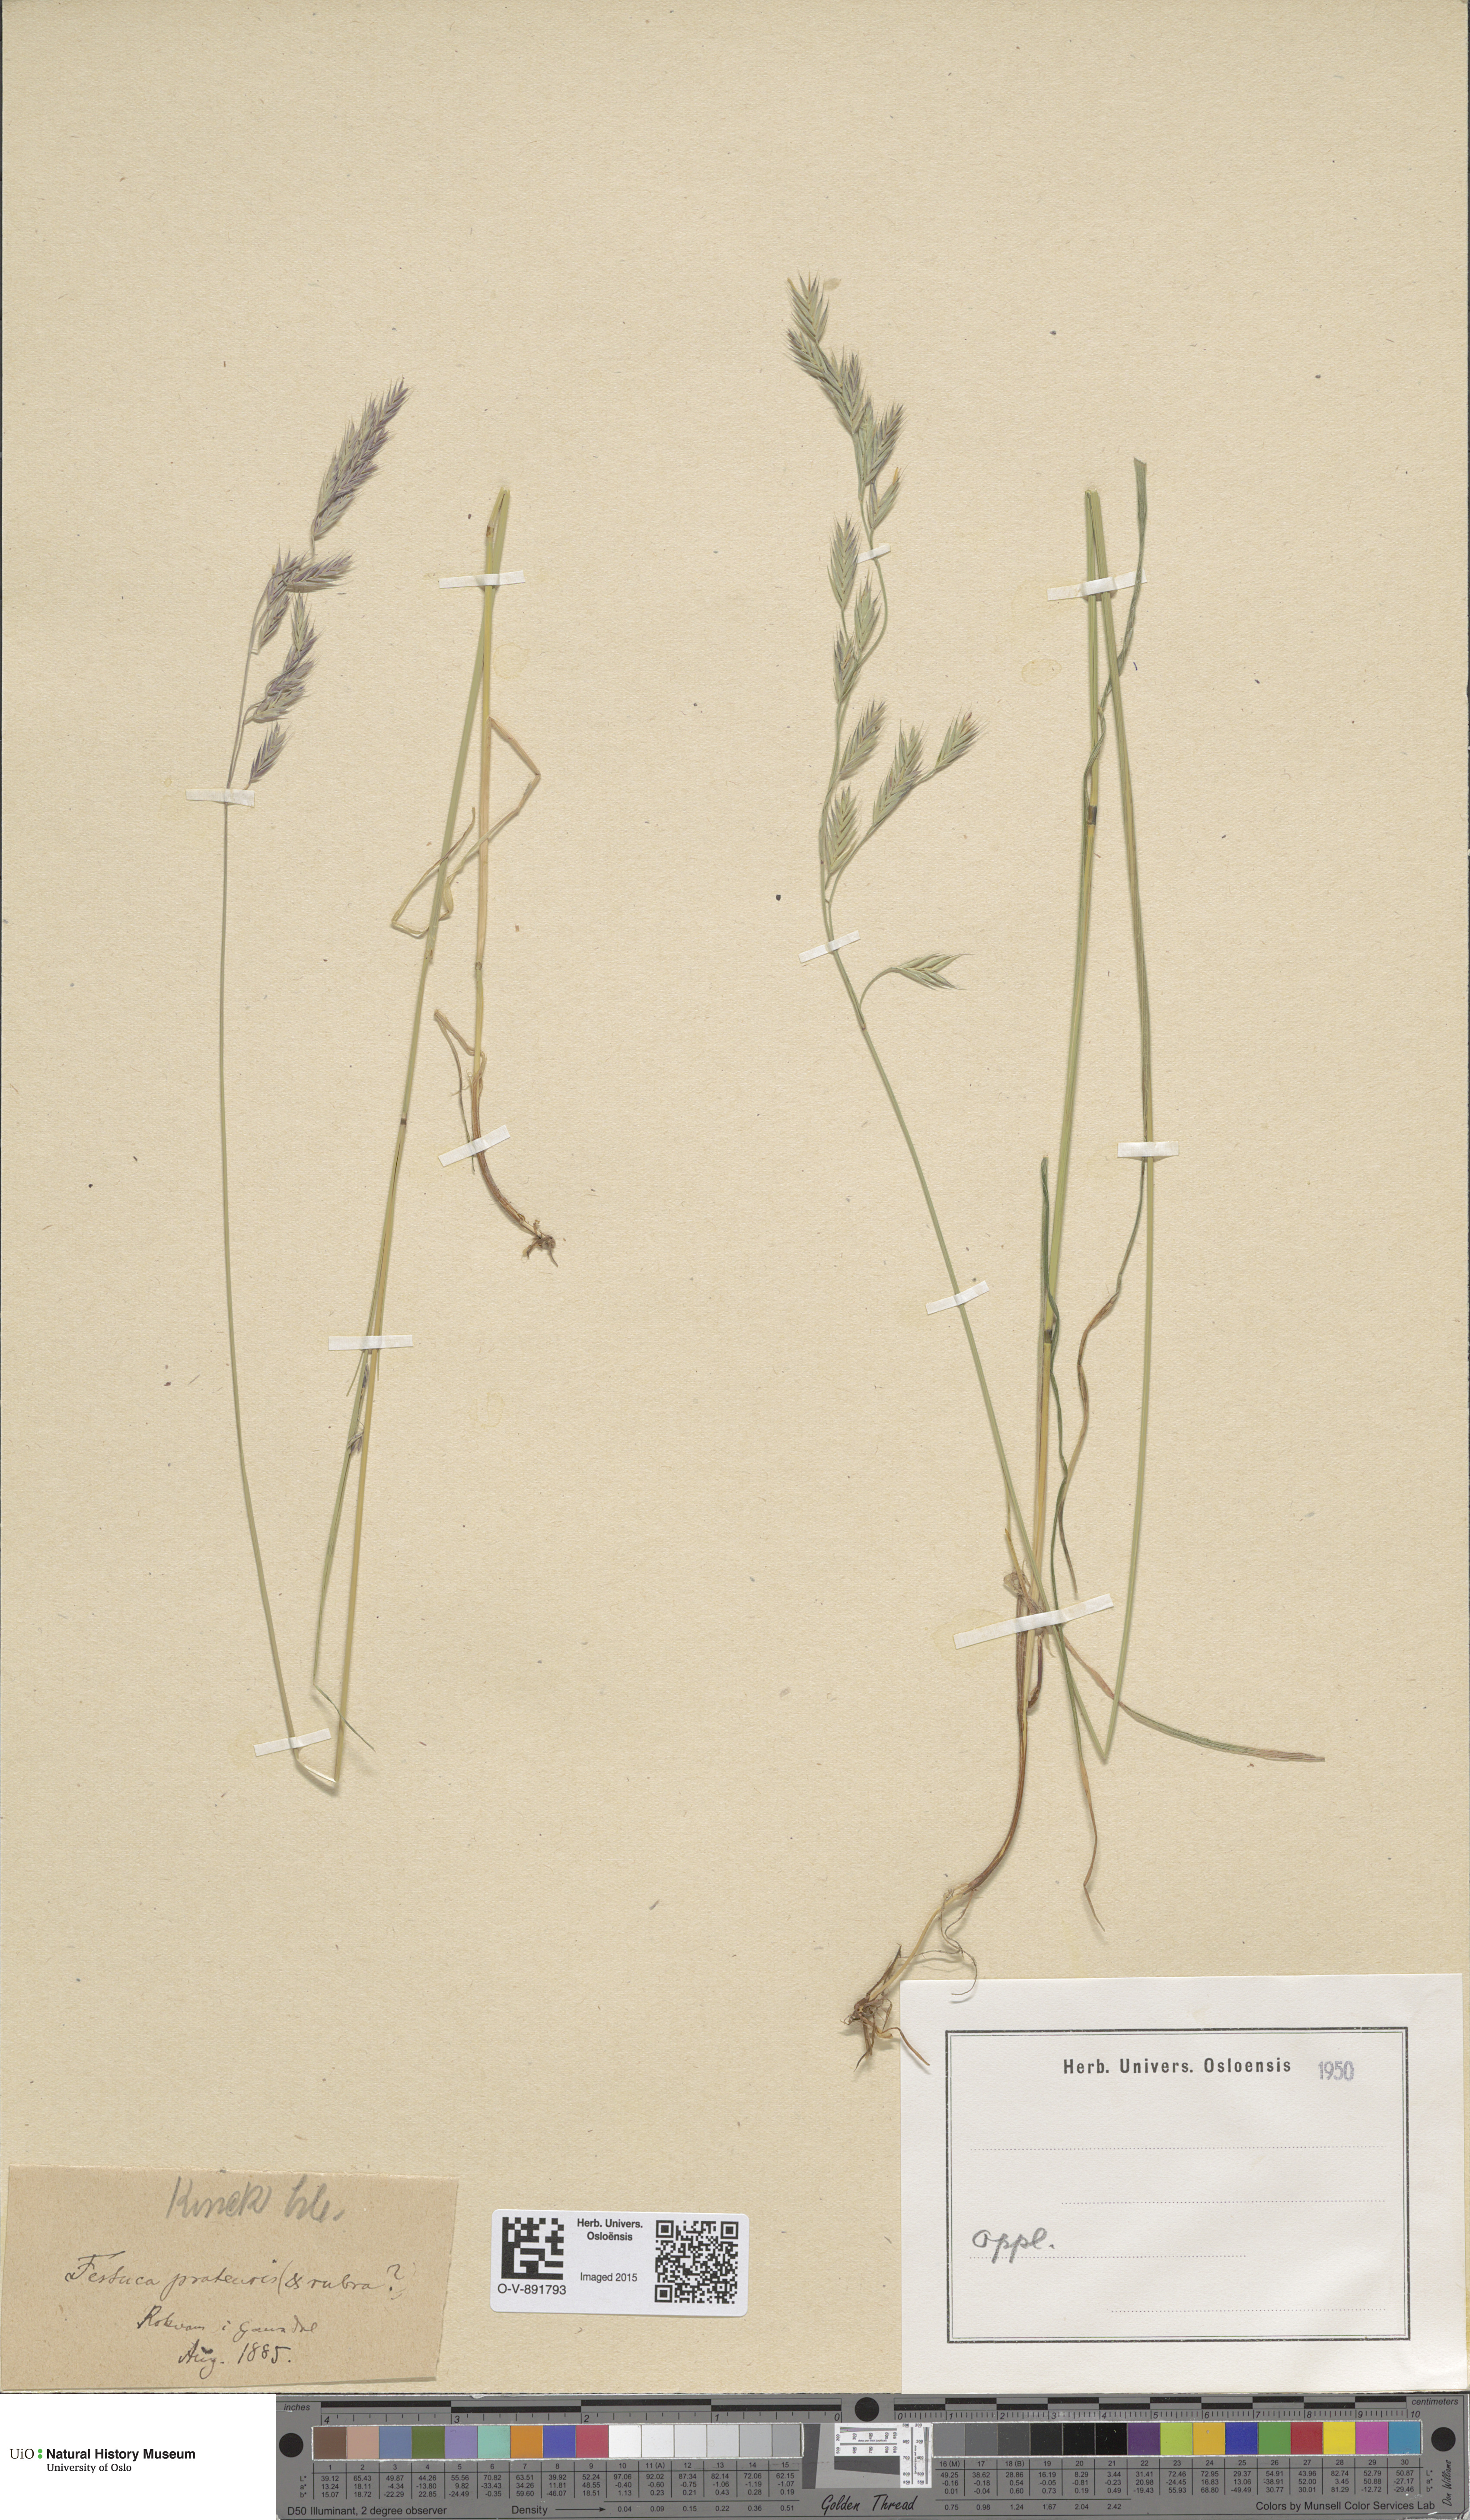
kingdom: Plantae
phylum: Tracheophyta
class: Liliopsida
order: Poales
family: Poaceae
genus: Lolium
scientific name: Lolium pratense
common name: Dover grass
